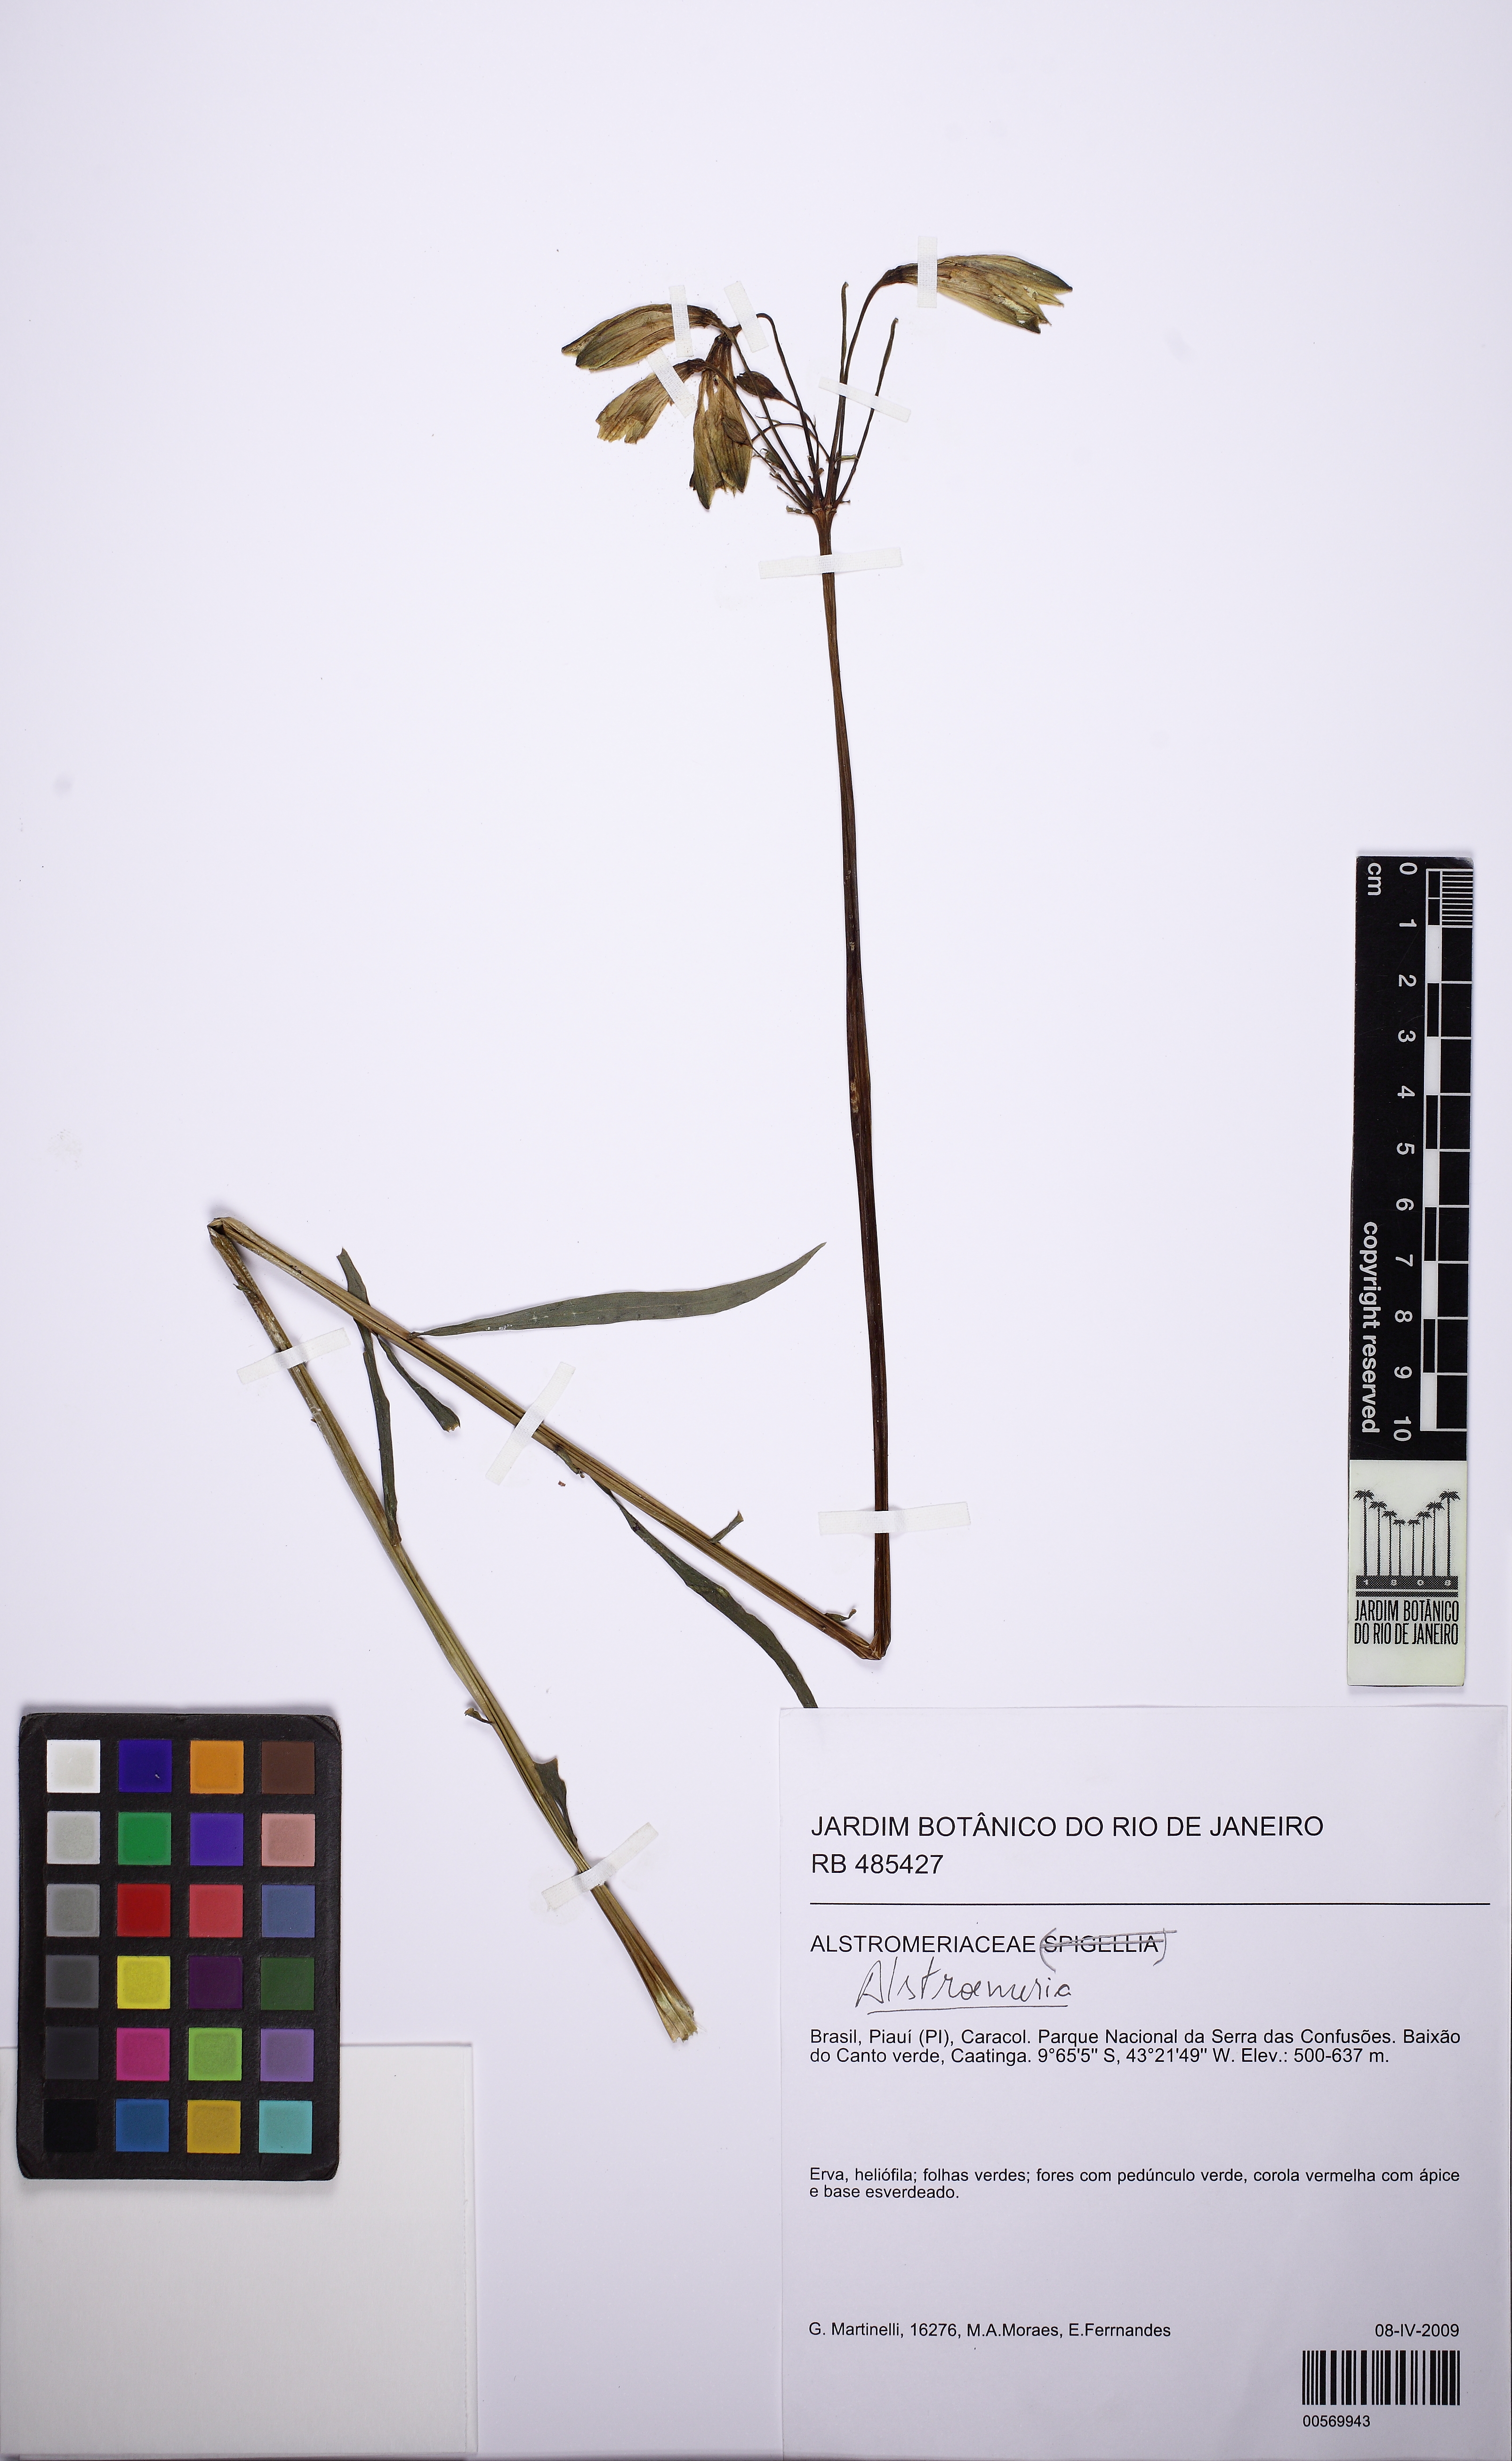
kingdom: Plantae
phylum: Tracheophyta
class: Liliopsida
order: Liliales
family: Alstroemeriaceae
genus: Alstroemeria
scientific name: Alstroemeria
